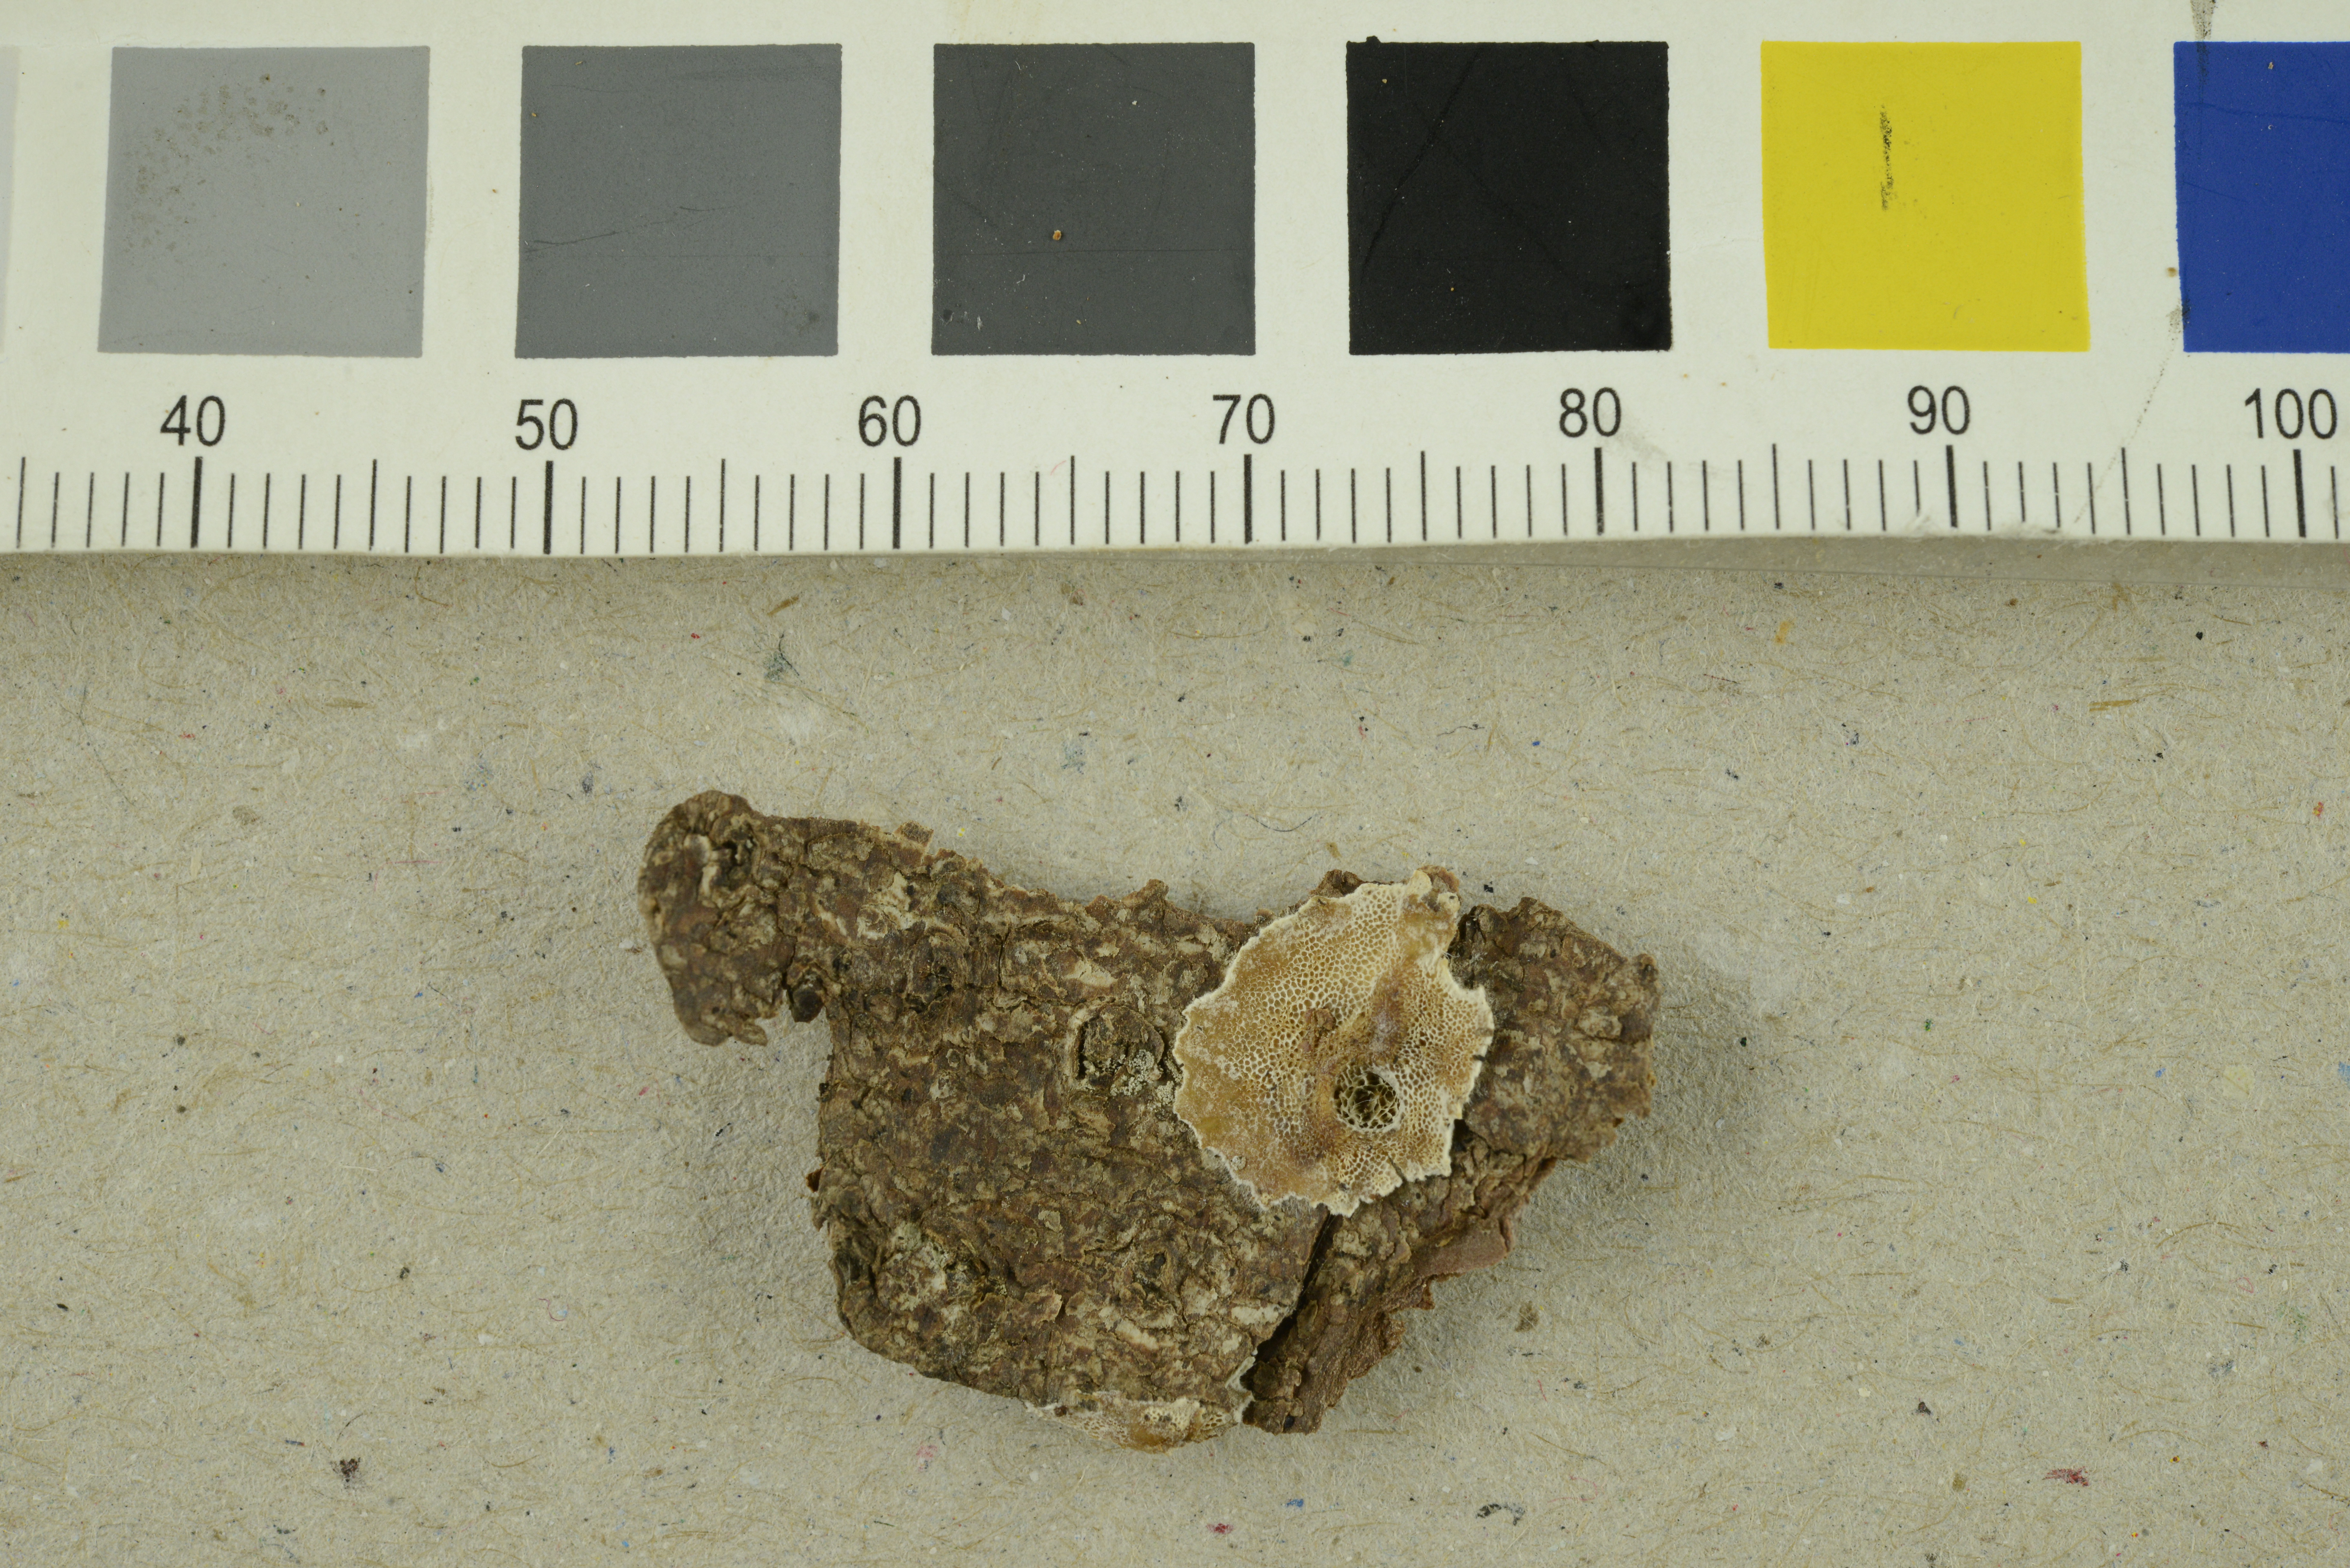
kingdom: Fungi
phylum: Basidiomycota
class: Agaricomycetes
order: Polyporales
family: Incrustoporiaceae
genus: Skeletocutis
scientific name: Skeletocutis carneogrisea
